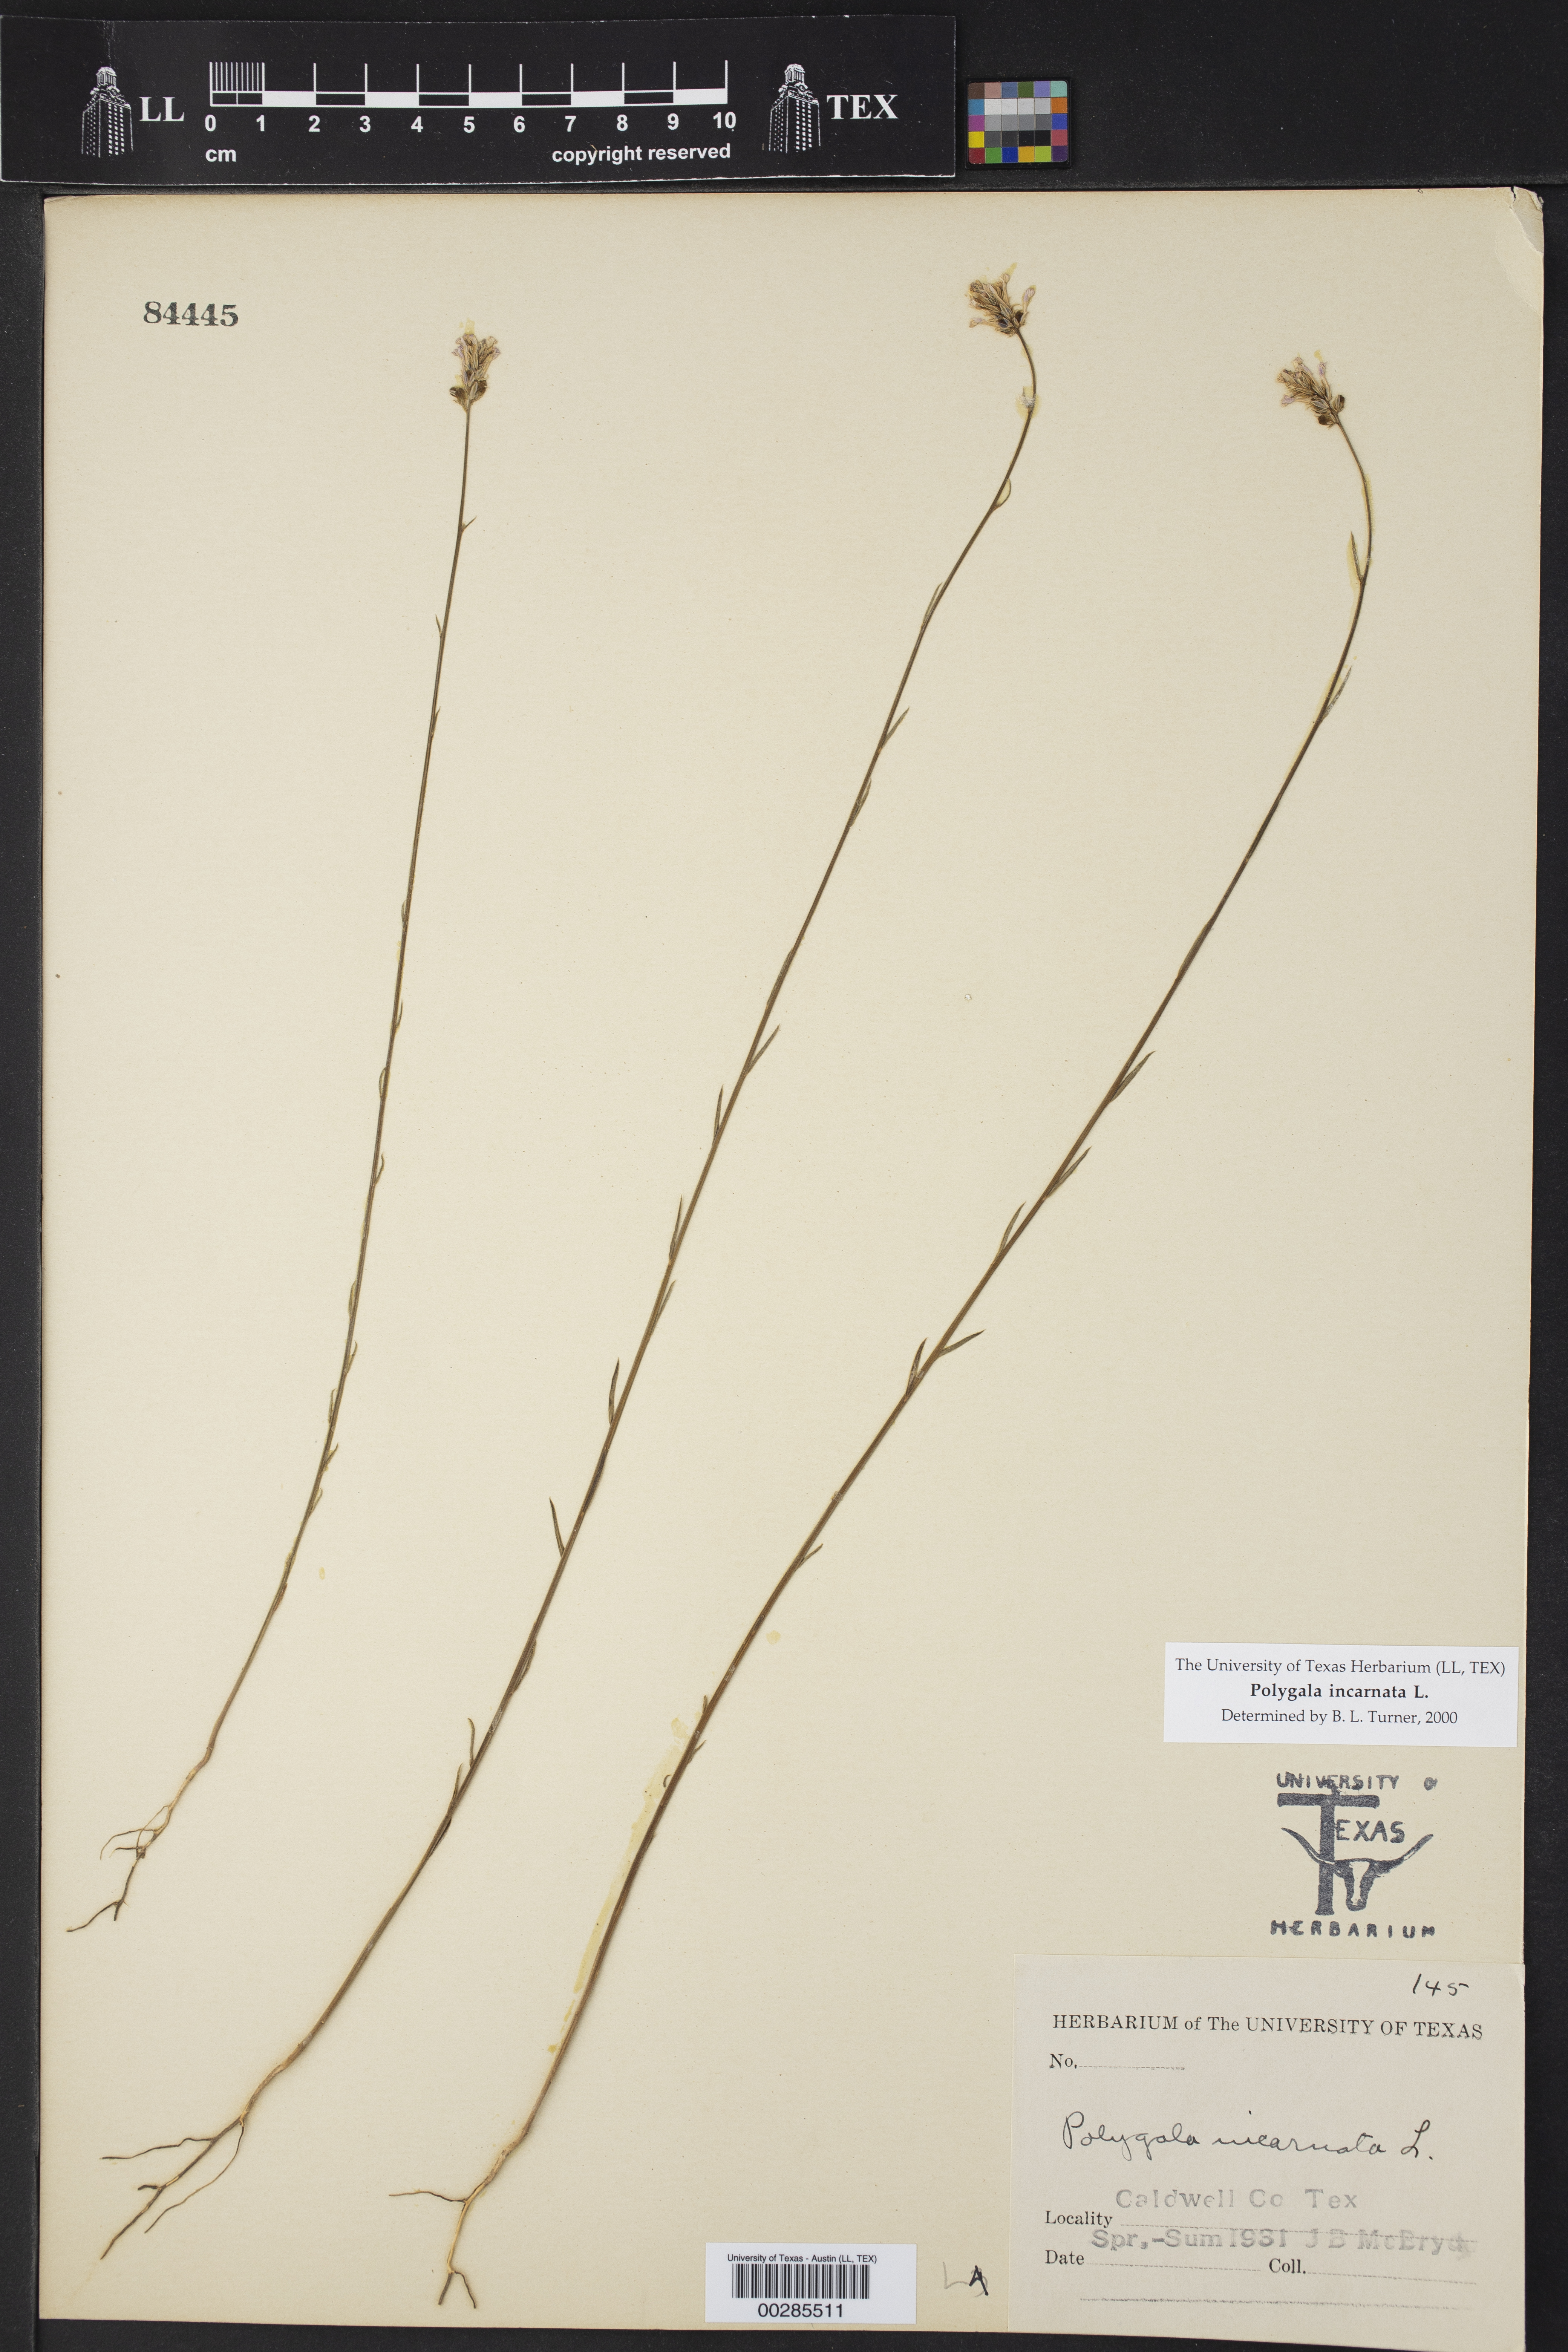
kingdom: Plantae
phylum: Tracheophyta
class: Magnoliopsida
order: Fabales
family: Polygalaceae
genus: Polygala
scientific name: Polygala incarnata
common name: Pink milkwort
